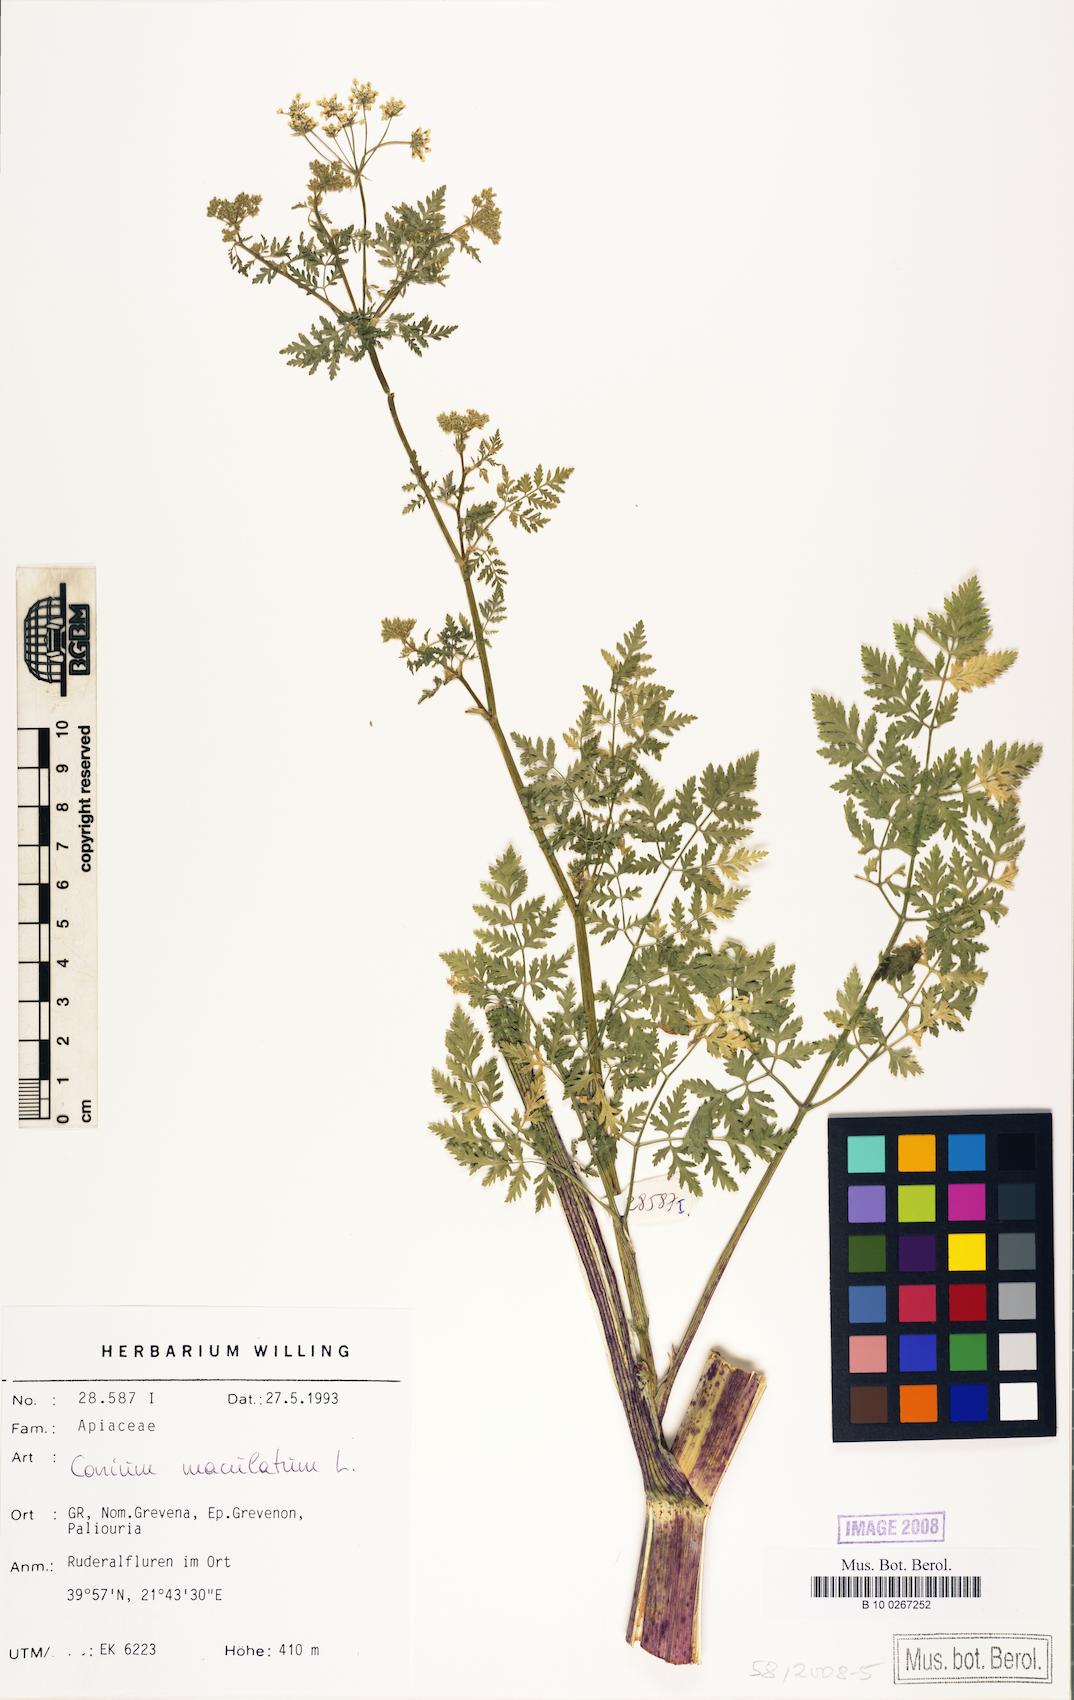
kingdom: Plantae
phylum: Tracheophyta
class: Magnoliopsida
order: Apiales
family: Apiaceae
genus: Conium
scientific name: Conium maculatum
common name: Hemlock
